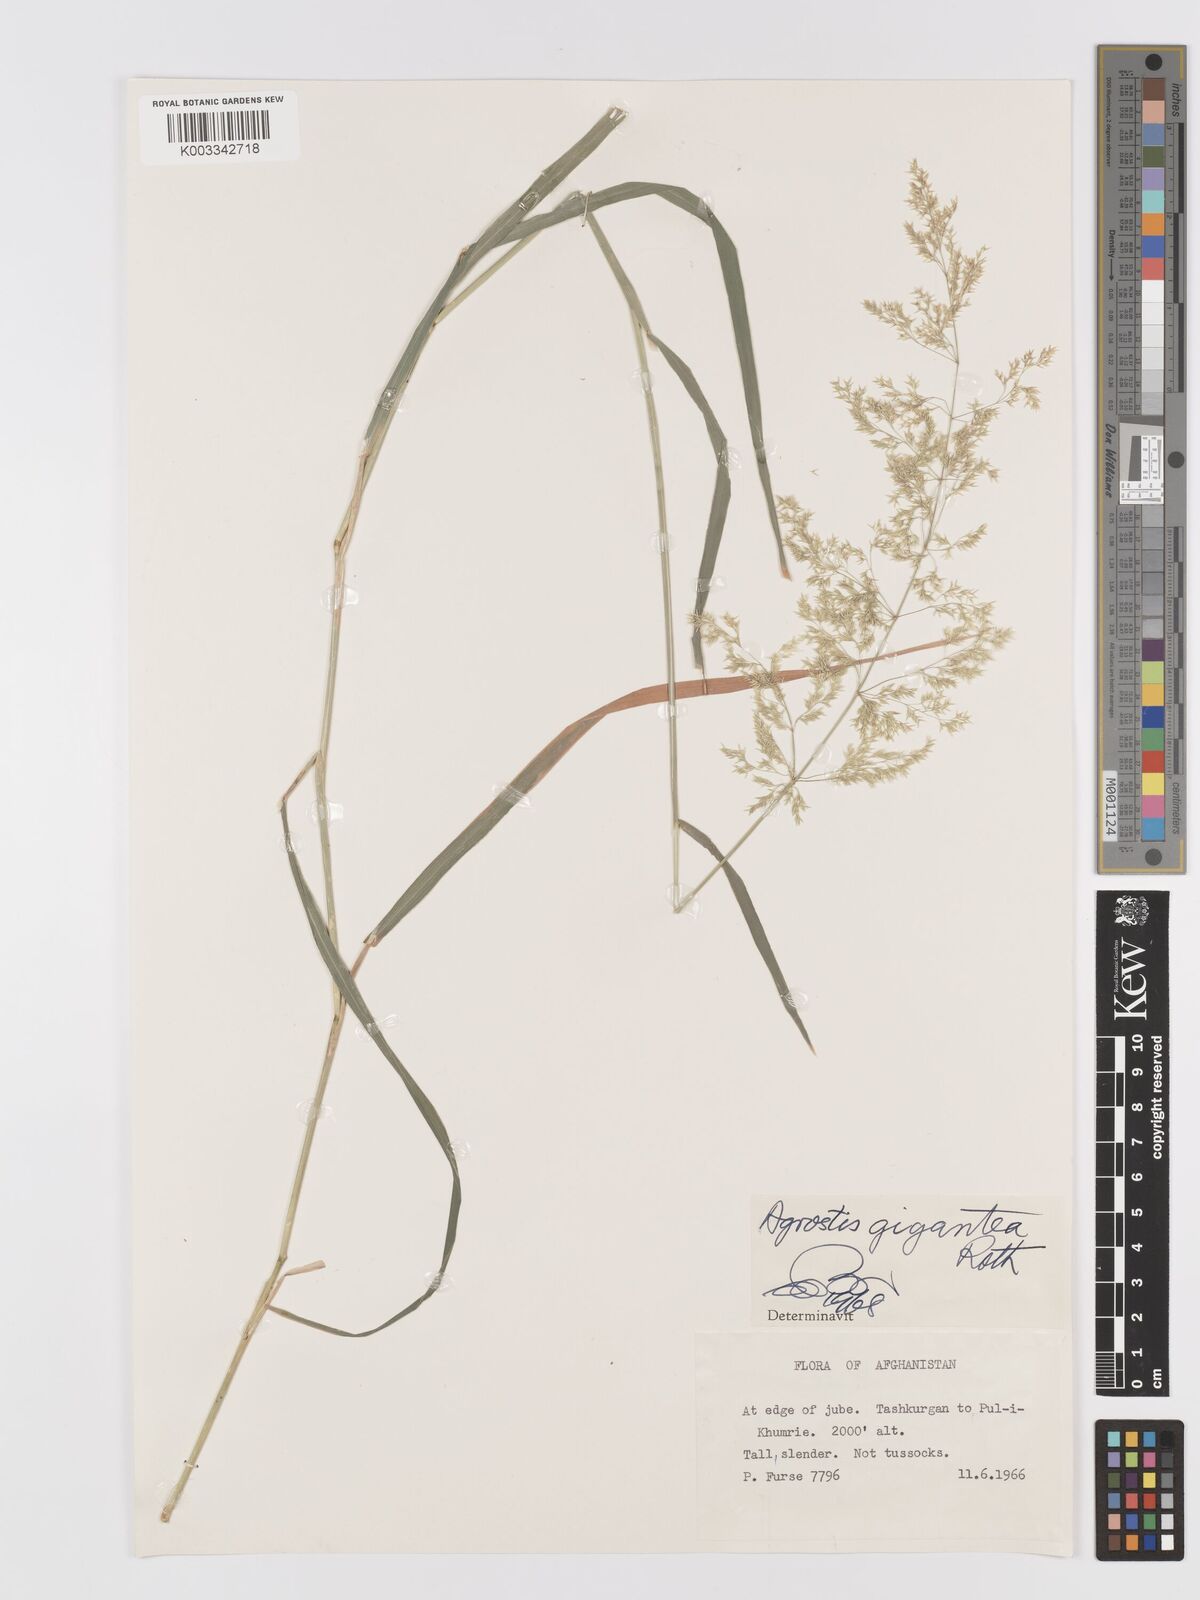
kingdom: Plantae
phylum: Tracheophyta
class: Liliopsida
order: Poales
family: Poaceae
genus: Agrostis
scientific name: Agrostis gigantea
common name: Black bent
